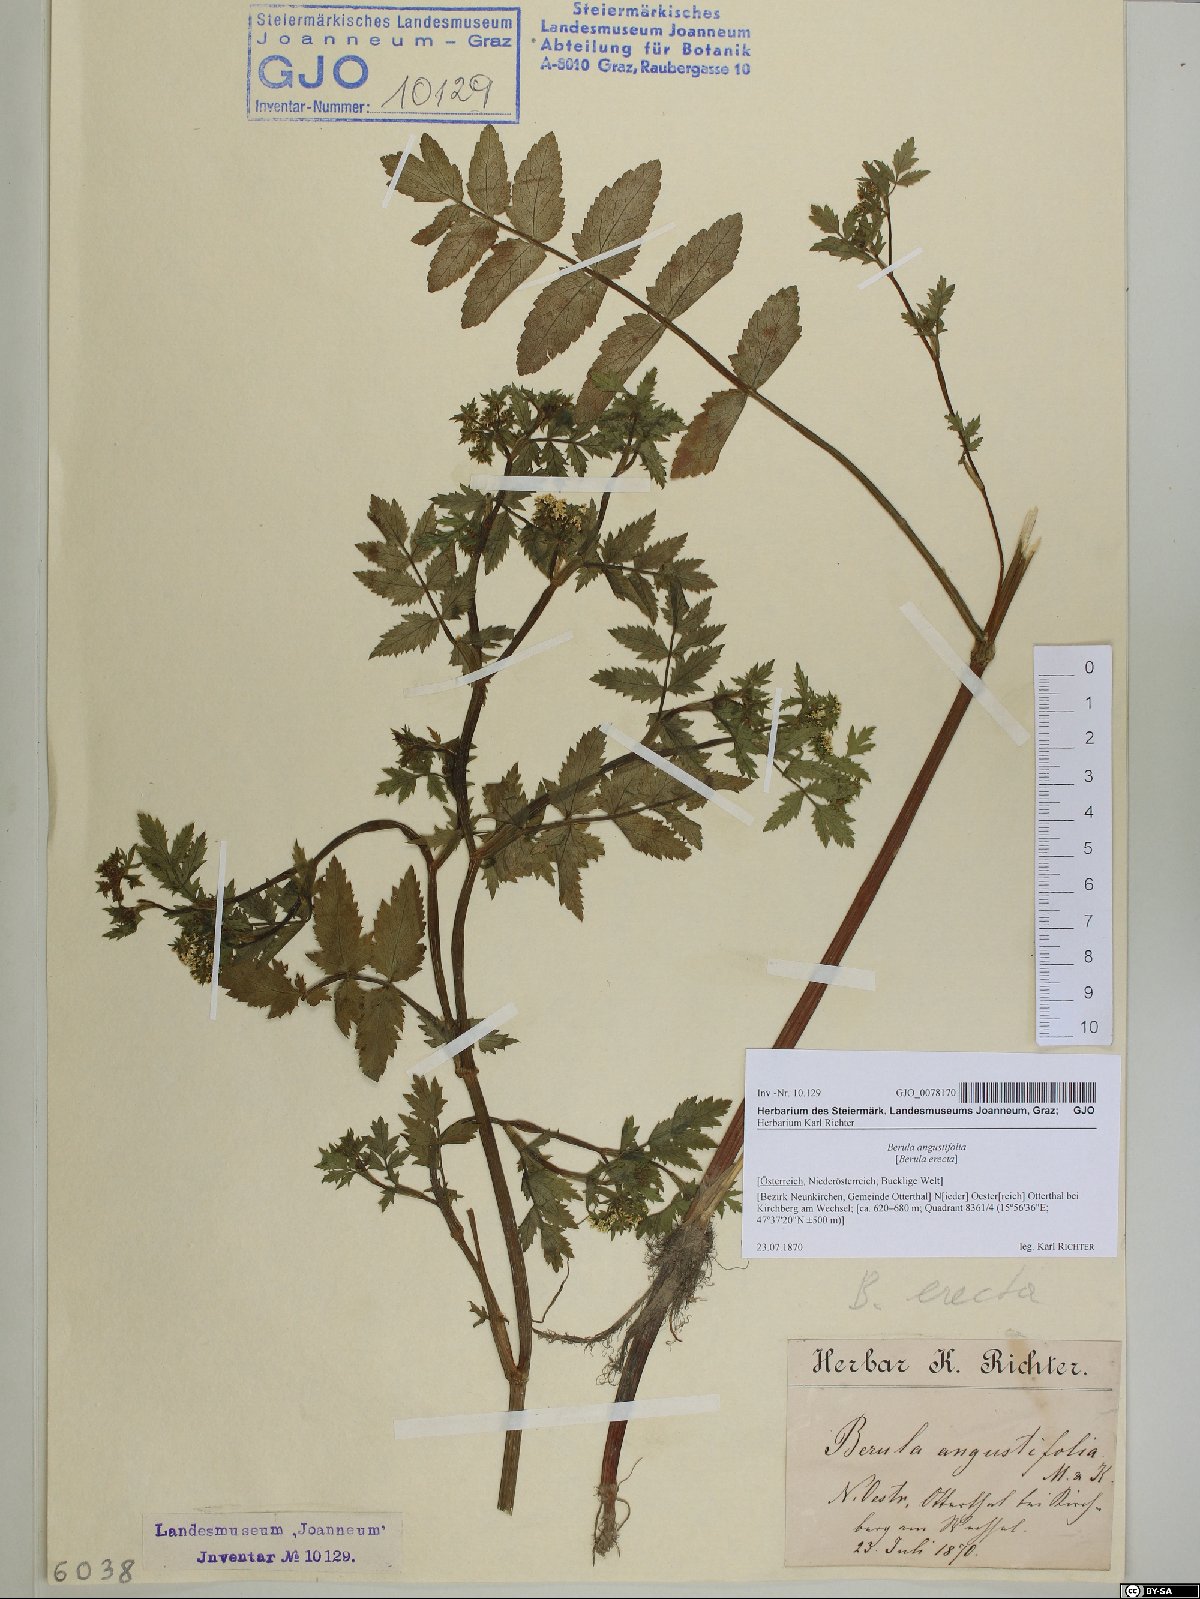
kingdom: Plantae
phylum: Tracheophyta
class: Magnoliopsida
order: Apiales
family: Apiaceae
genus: Berula
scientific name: Berula erecta
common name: Lesser water-parsnip
